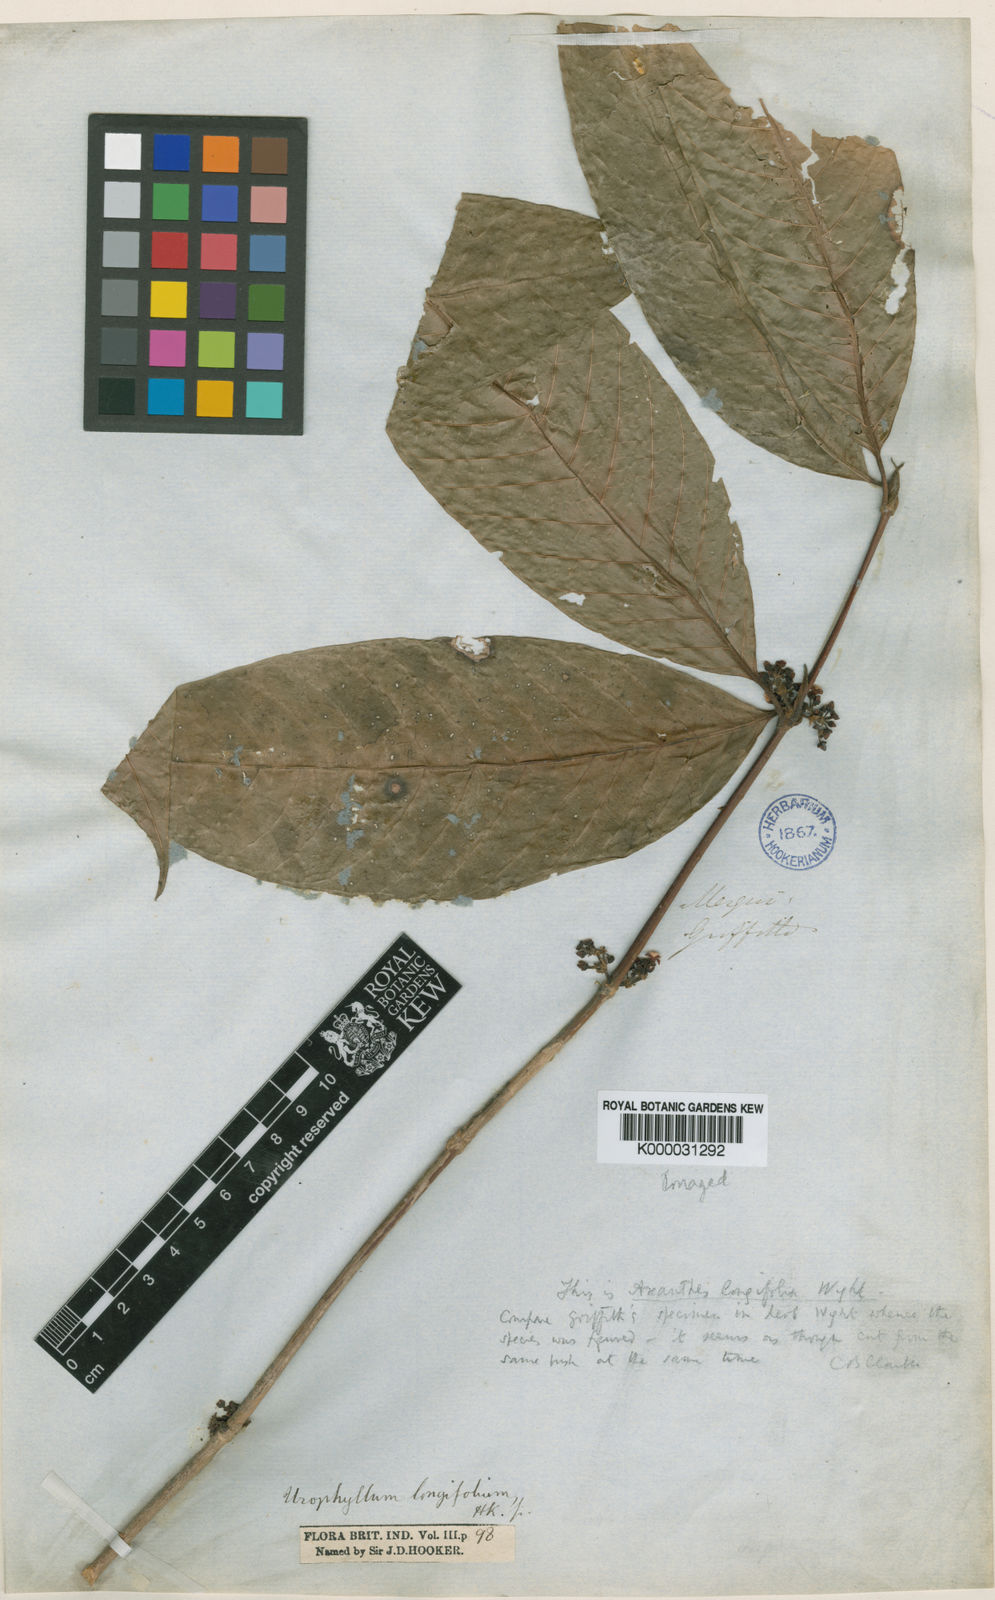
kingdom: Plantae
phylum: Tracheophyta
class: Magnoliopsida
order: Gentianales
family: Rubiaceae
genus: Urophyllum
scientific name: Urophyllum longifolium
